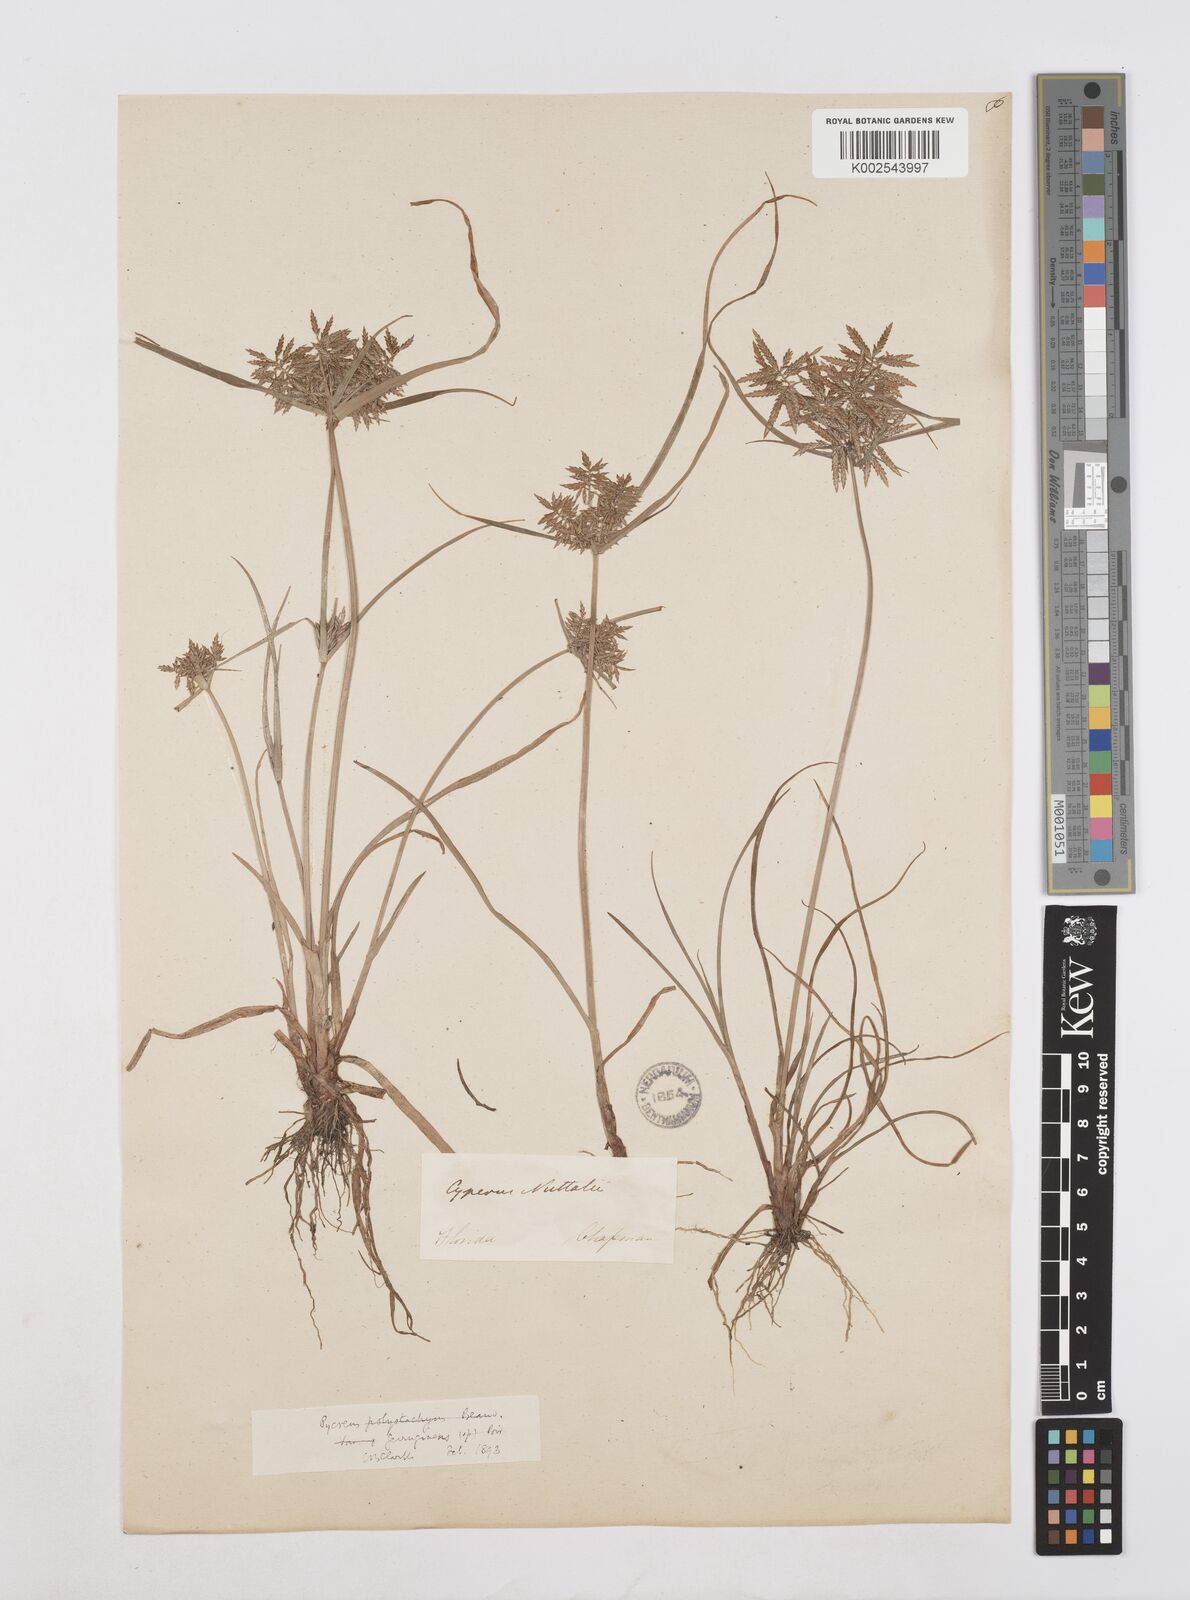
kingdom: Plantae
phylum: Tracheophyta
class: Liliopsida
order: Poales
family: Cyperaceae
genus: Cyperus
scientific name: Cyperus filicinus
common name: Fern flatsedge
